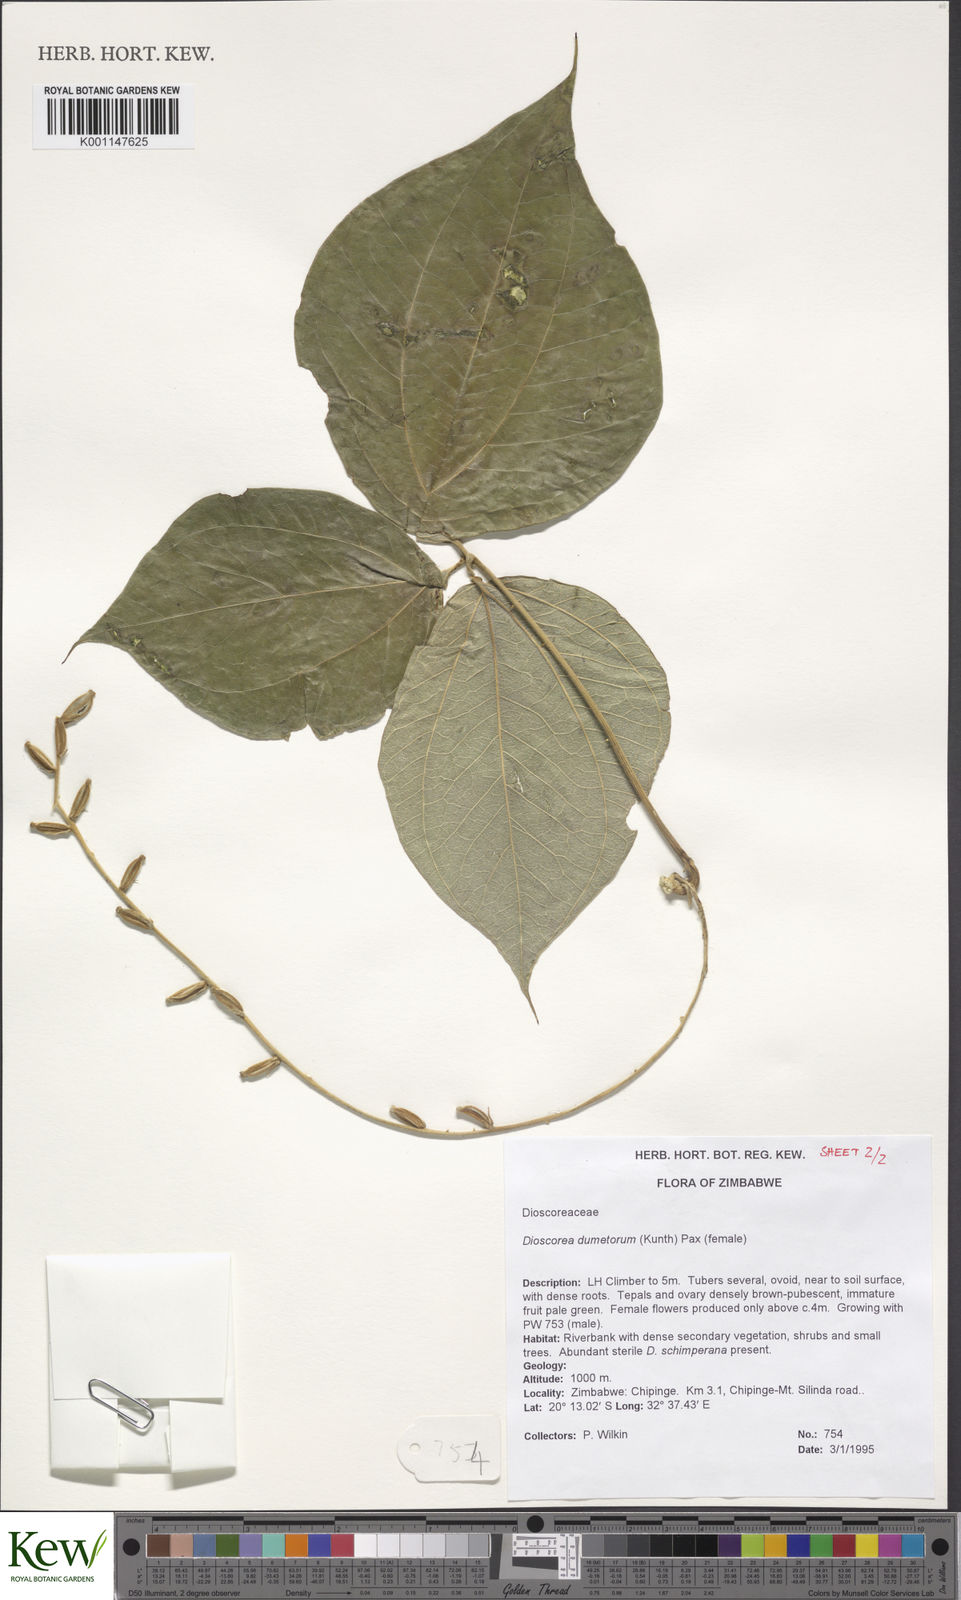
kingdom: Plantae
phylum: Tracheophyta
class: Liliopsida
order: Dioscoreales
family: Dioscoreaceae
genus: Dioscorea
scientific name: Dioscorea dumetorum
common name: African bitter yam
